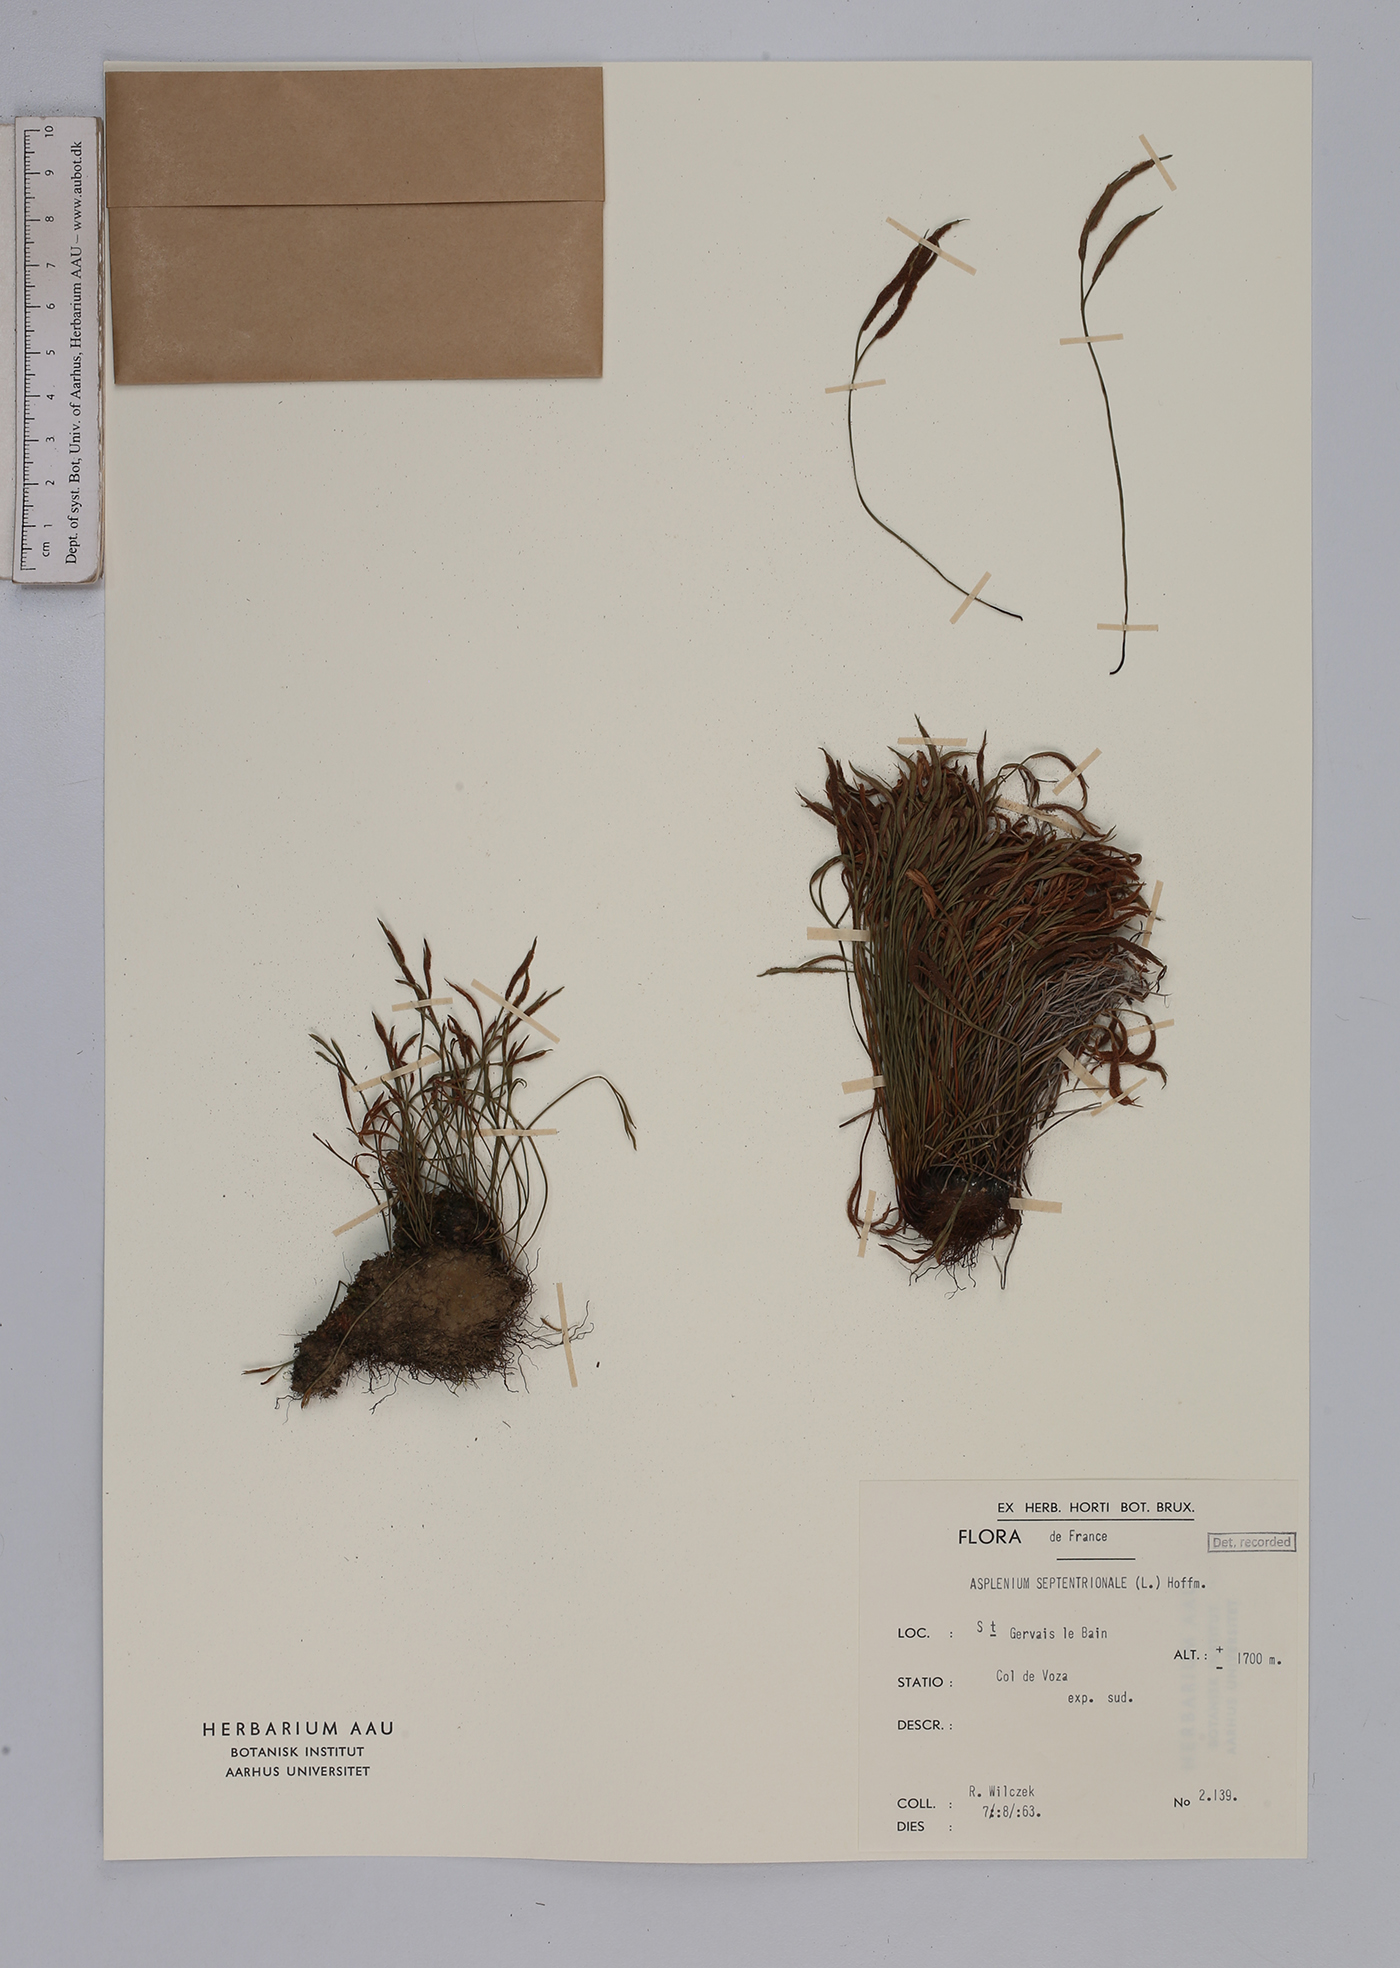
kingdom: Plantae
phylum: Tracheophyta
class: Polypodiopsida
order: Polypodiales
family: Aspleniaceae
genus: Asplenium
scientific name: Asplenium septentrionale
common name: Forked spleenwort
